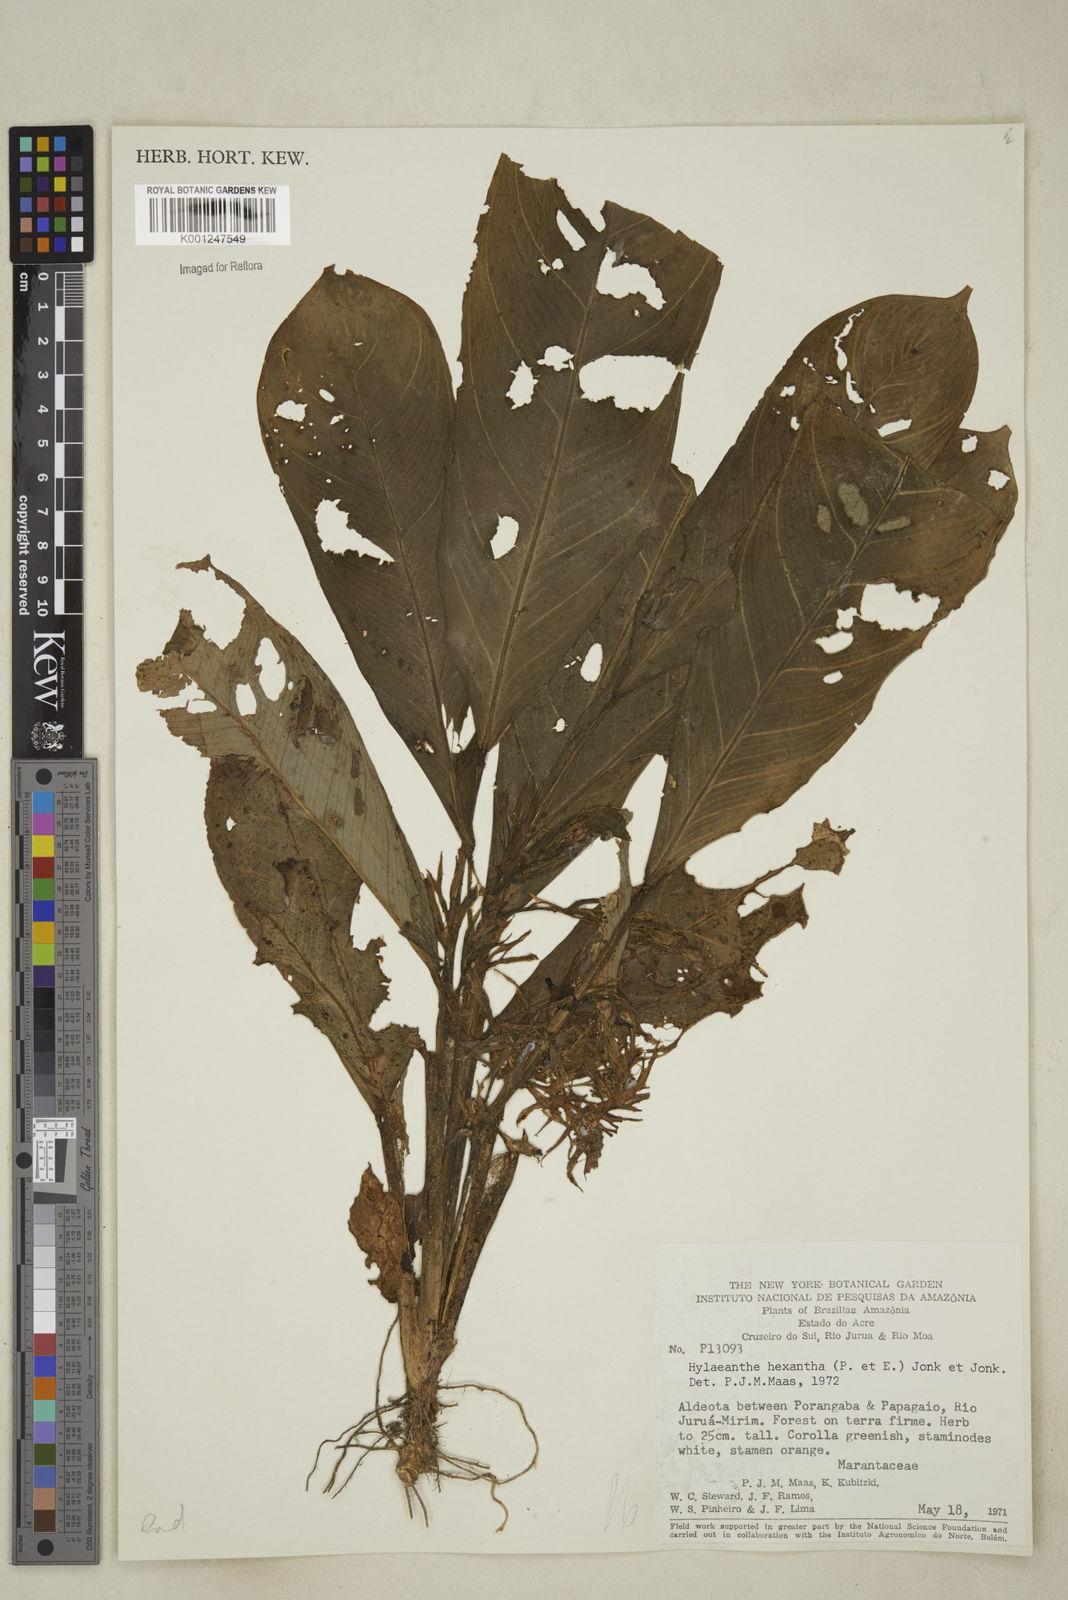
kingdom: Plantae
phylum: Tracheophyta
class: Liliopsida
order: Zingiberales
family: Marantaceae
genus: Hylaeanthe
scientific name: Hylaeanthe hexantha
